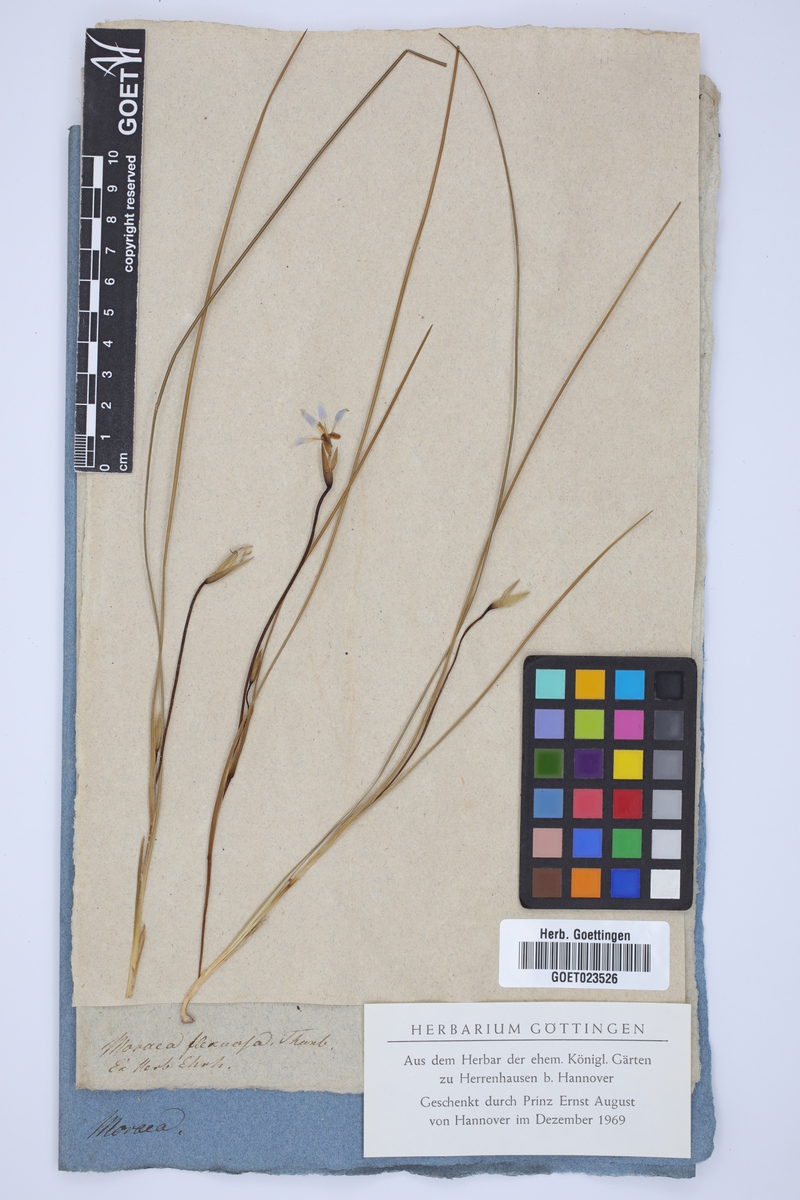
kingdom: Plantae
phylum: Tracheophyta
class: Liliopsida
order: Asparagales
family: Iridaceae
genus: Moraea
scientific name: Moraea longifolia
